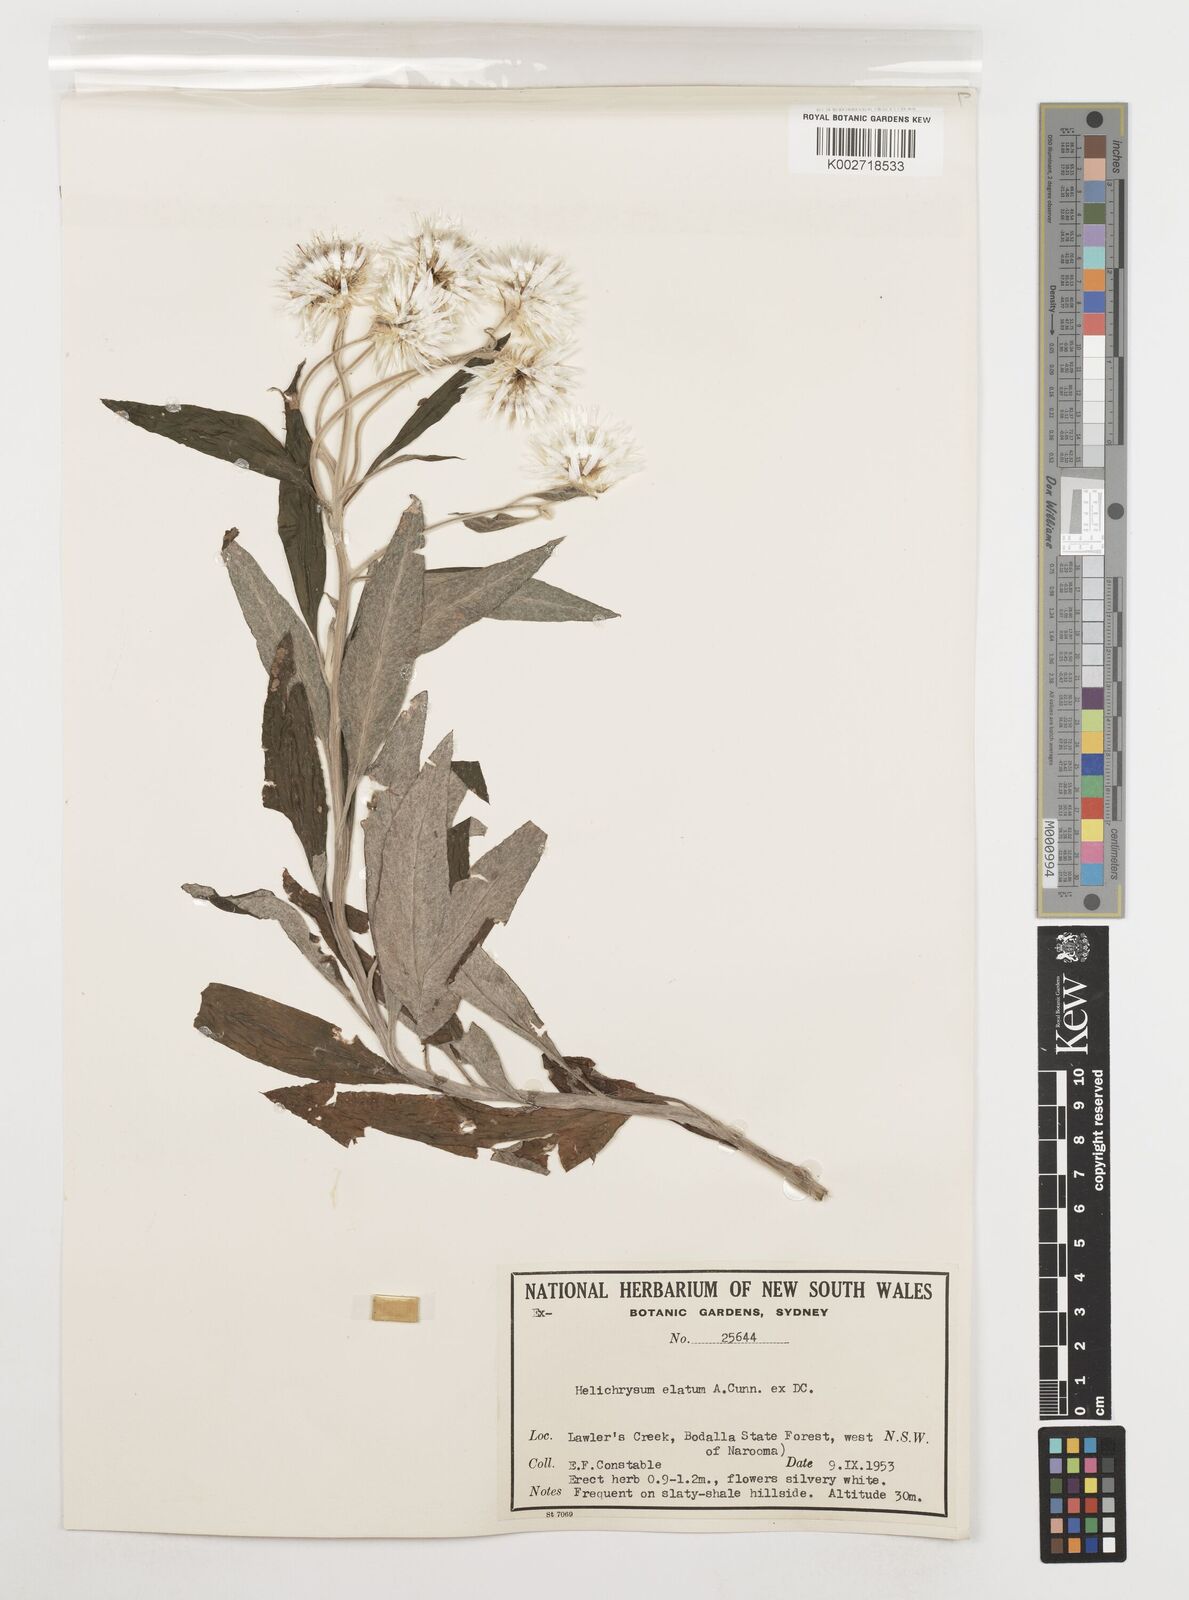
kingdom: Plantae
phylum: Tracheophyta
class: Magnoliopsida
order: Asterales
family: Asteraceae
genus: Leucozoma
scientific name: Leucozoma elatum
